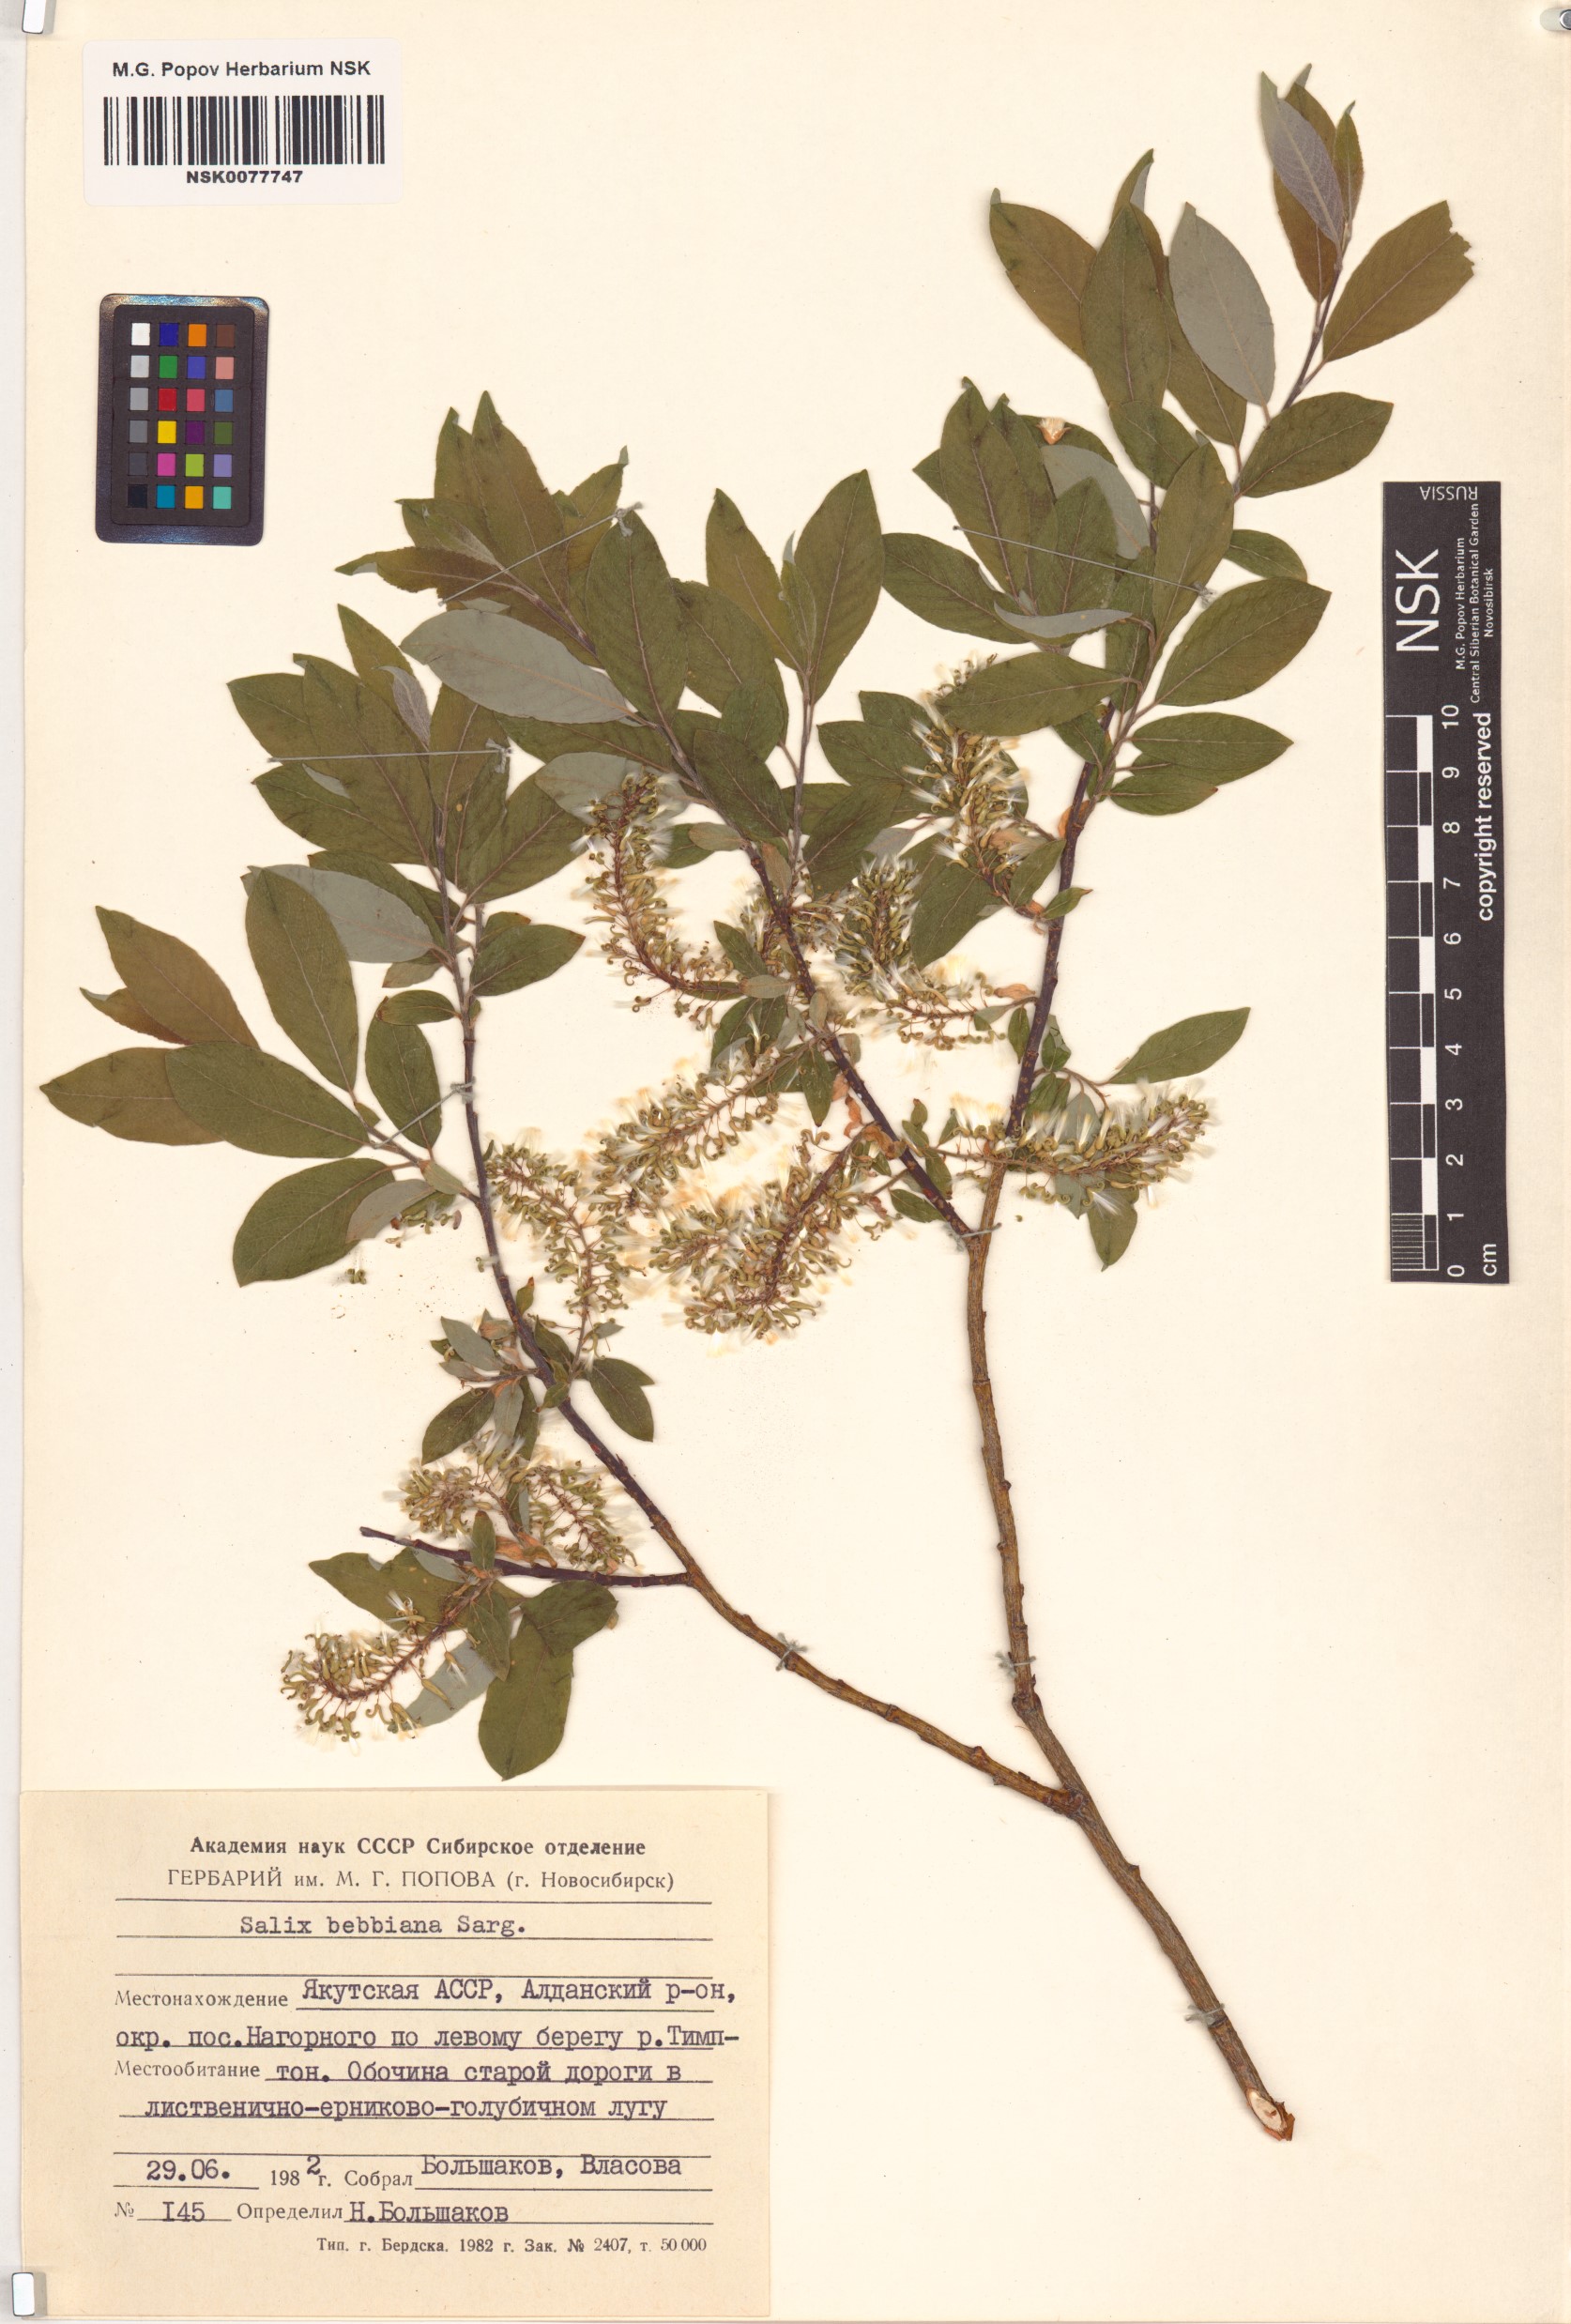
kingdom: Plantae
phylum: Tracheophyta
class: Magnoliopsida
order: Malpighiales
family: Salicaceae
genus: Salix
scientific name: Salix bebbiana
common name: Bebb's willow
